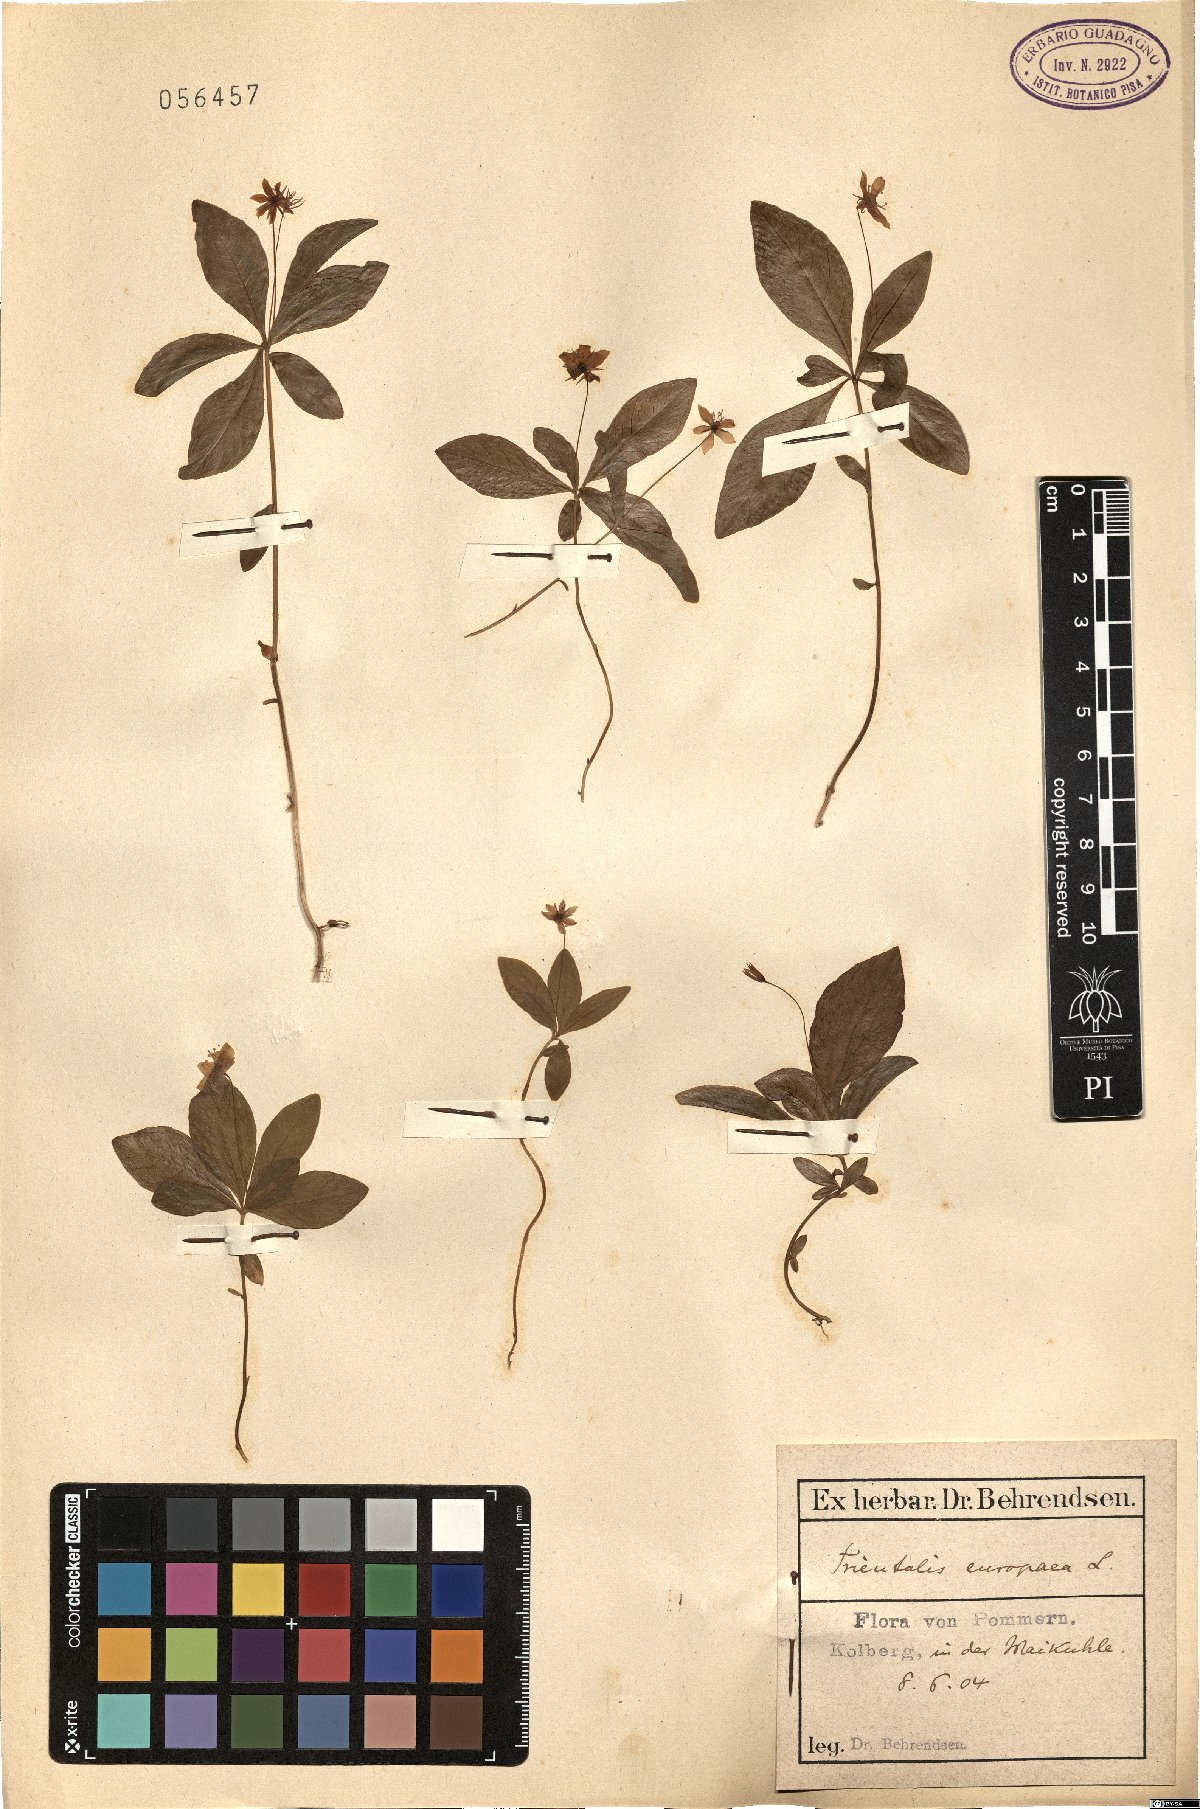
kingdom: Plantae
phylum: Tracheophyta
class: Magnoliopsida
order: Ericales
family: Primulaceae
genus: Lysimachia
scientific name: Lysimachia europaea
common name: Arctic starflower
